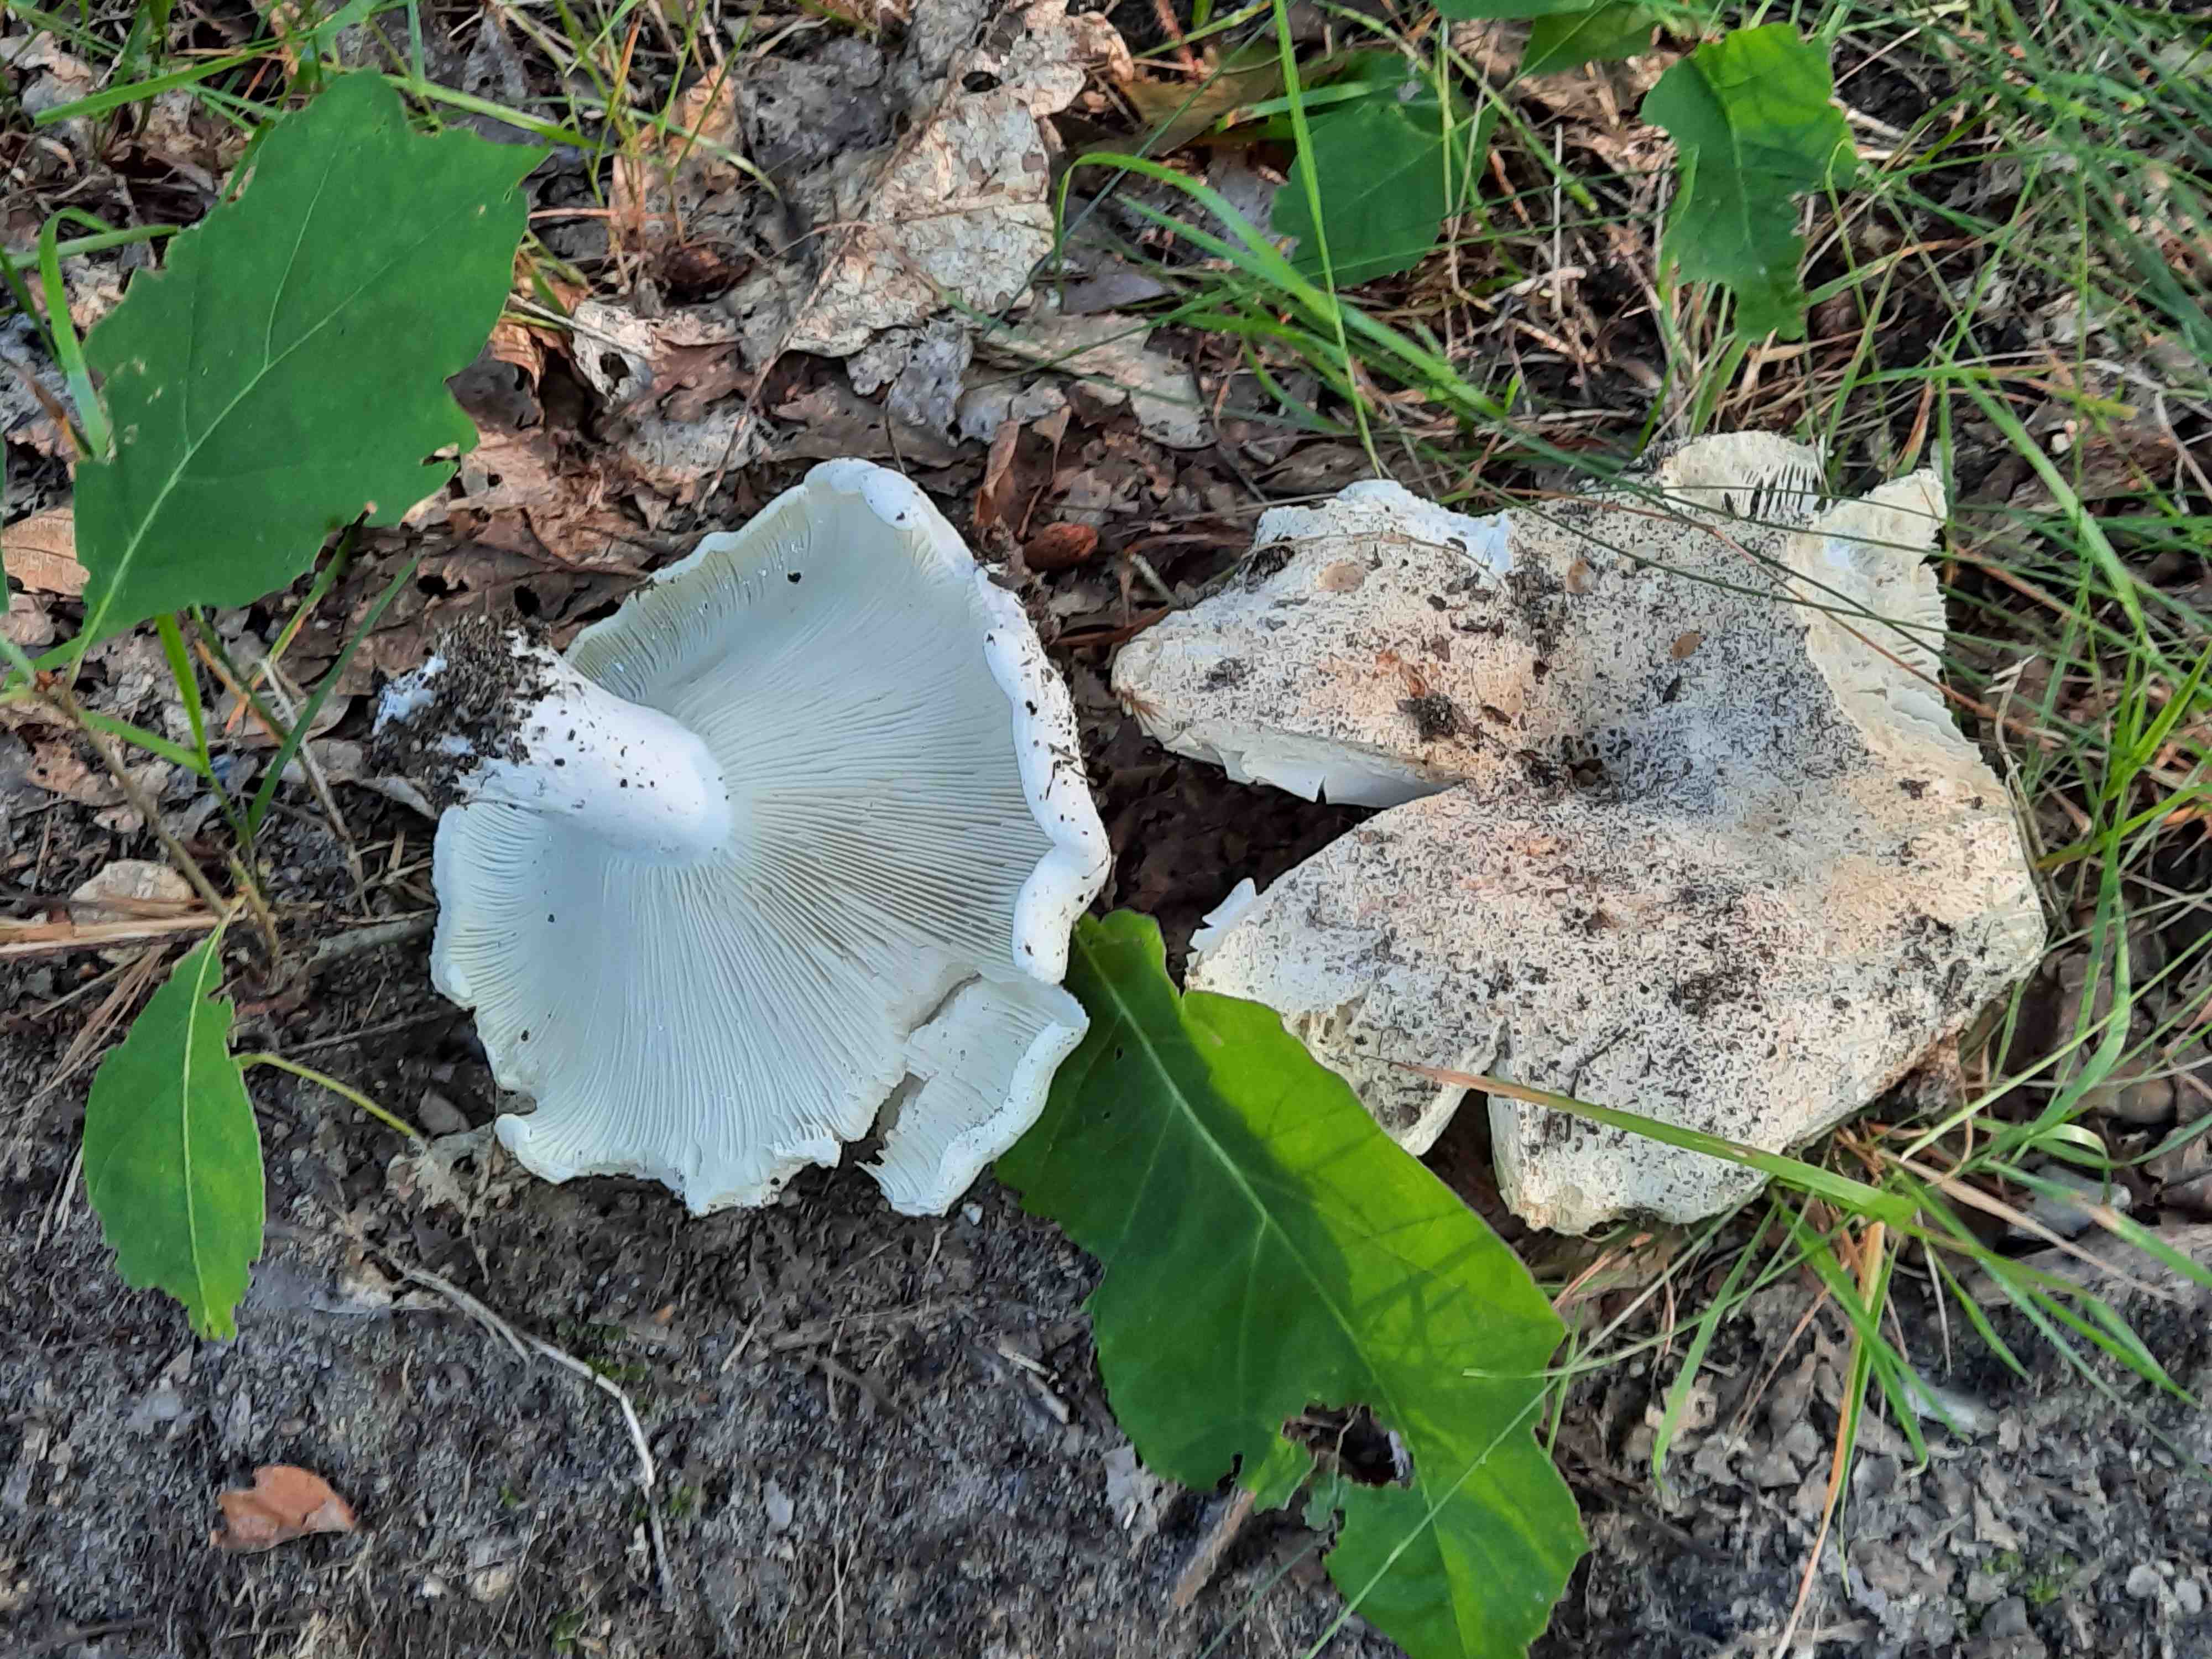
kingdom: Fungi
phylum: Basidiomycota
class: Agaricomycetes
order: Russulales
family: Russulaceae
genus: Russula
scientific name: Russula delica
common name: almindelig tragt-skørhat
